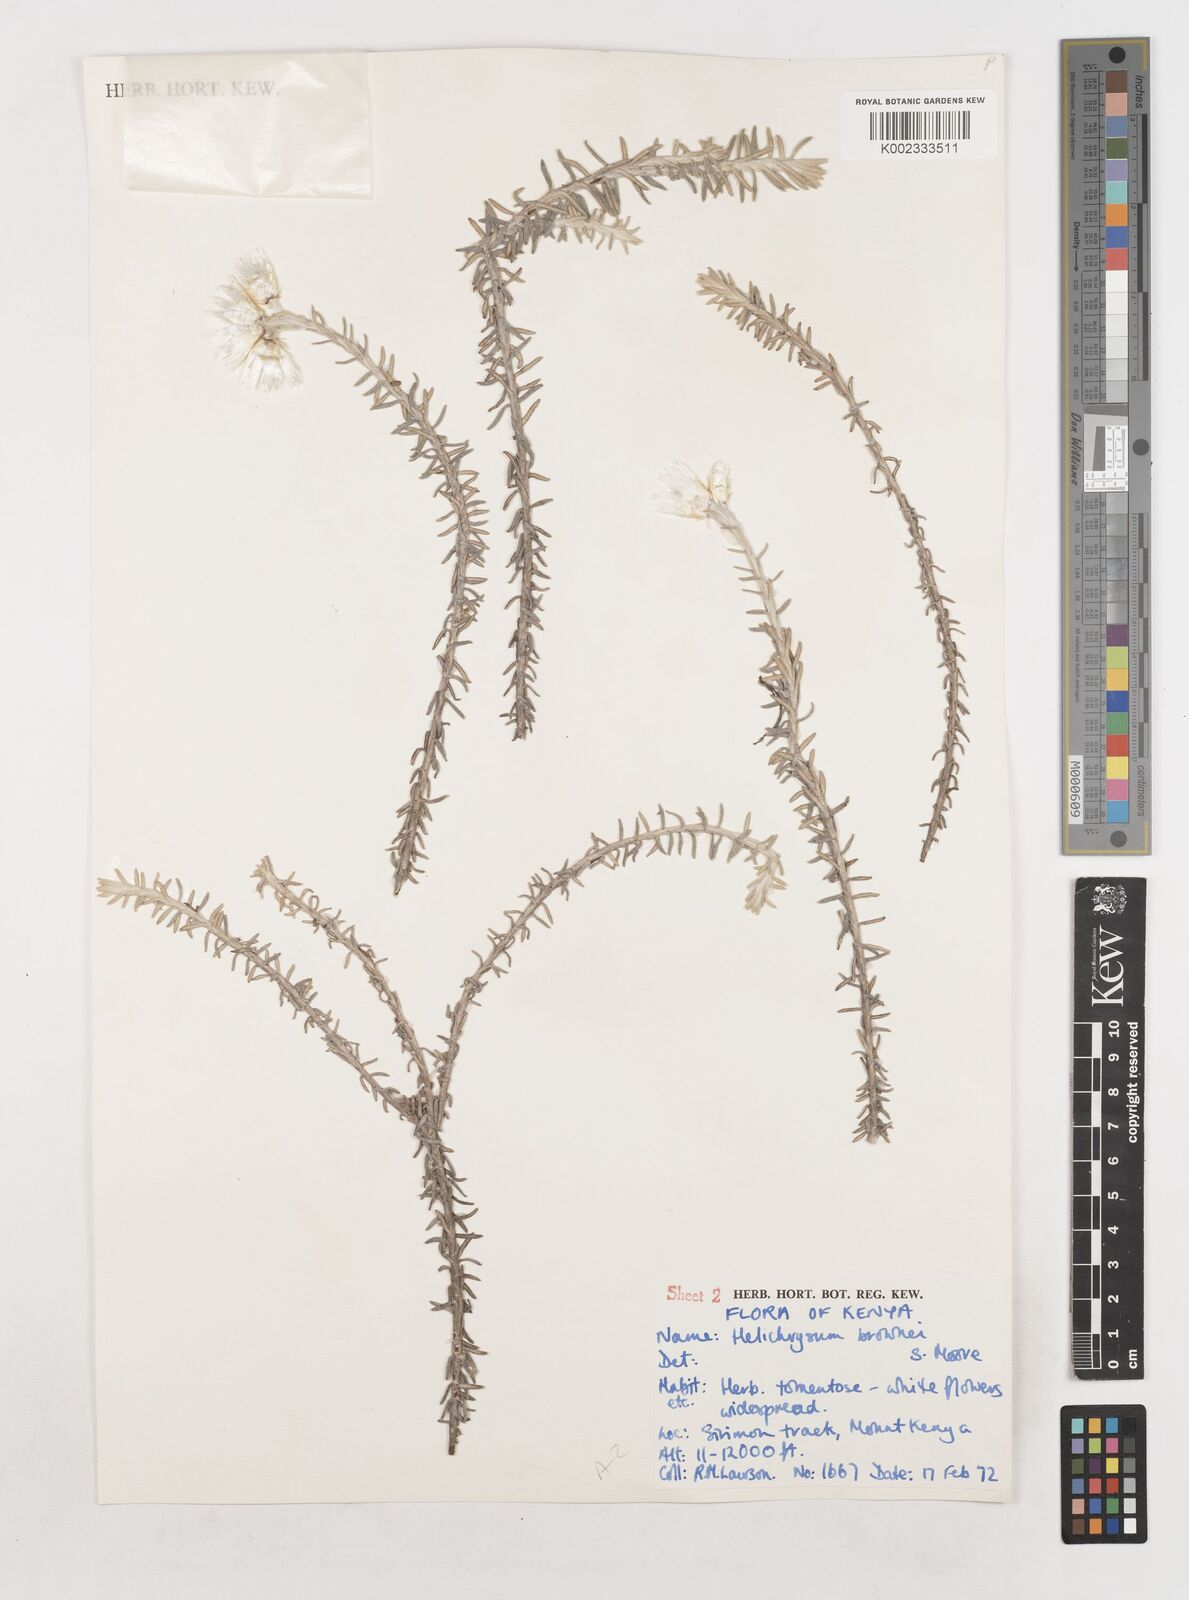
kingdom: Plantae
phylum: Tracheophyta
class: Magnoliopsida
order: Asterales
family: Asteraceae
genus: Helichrysum
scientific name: Helichrysum brownei
